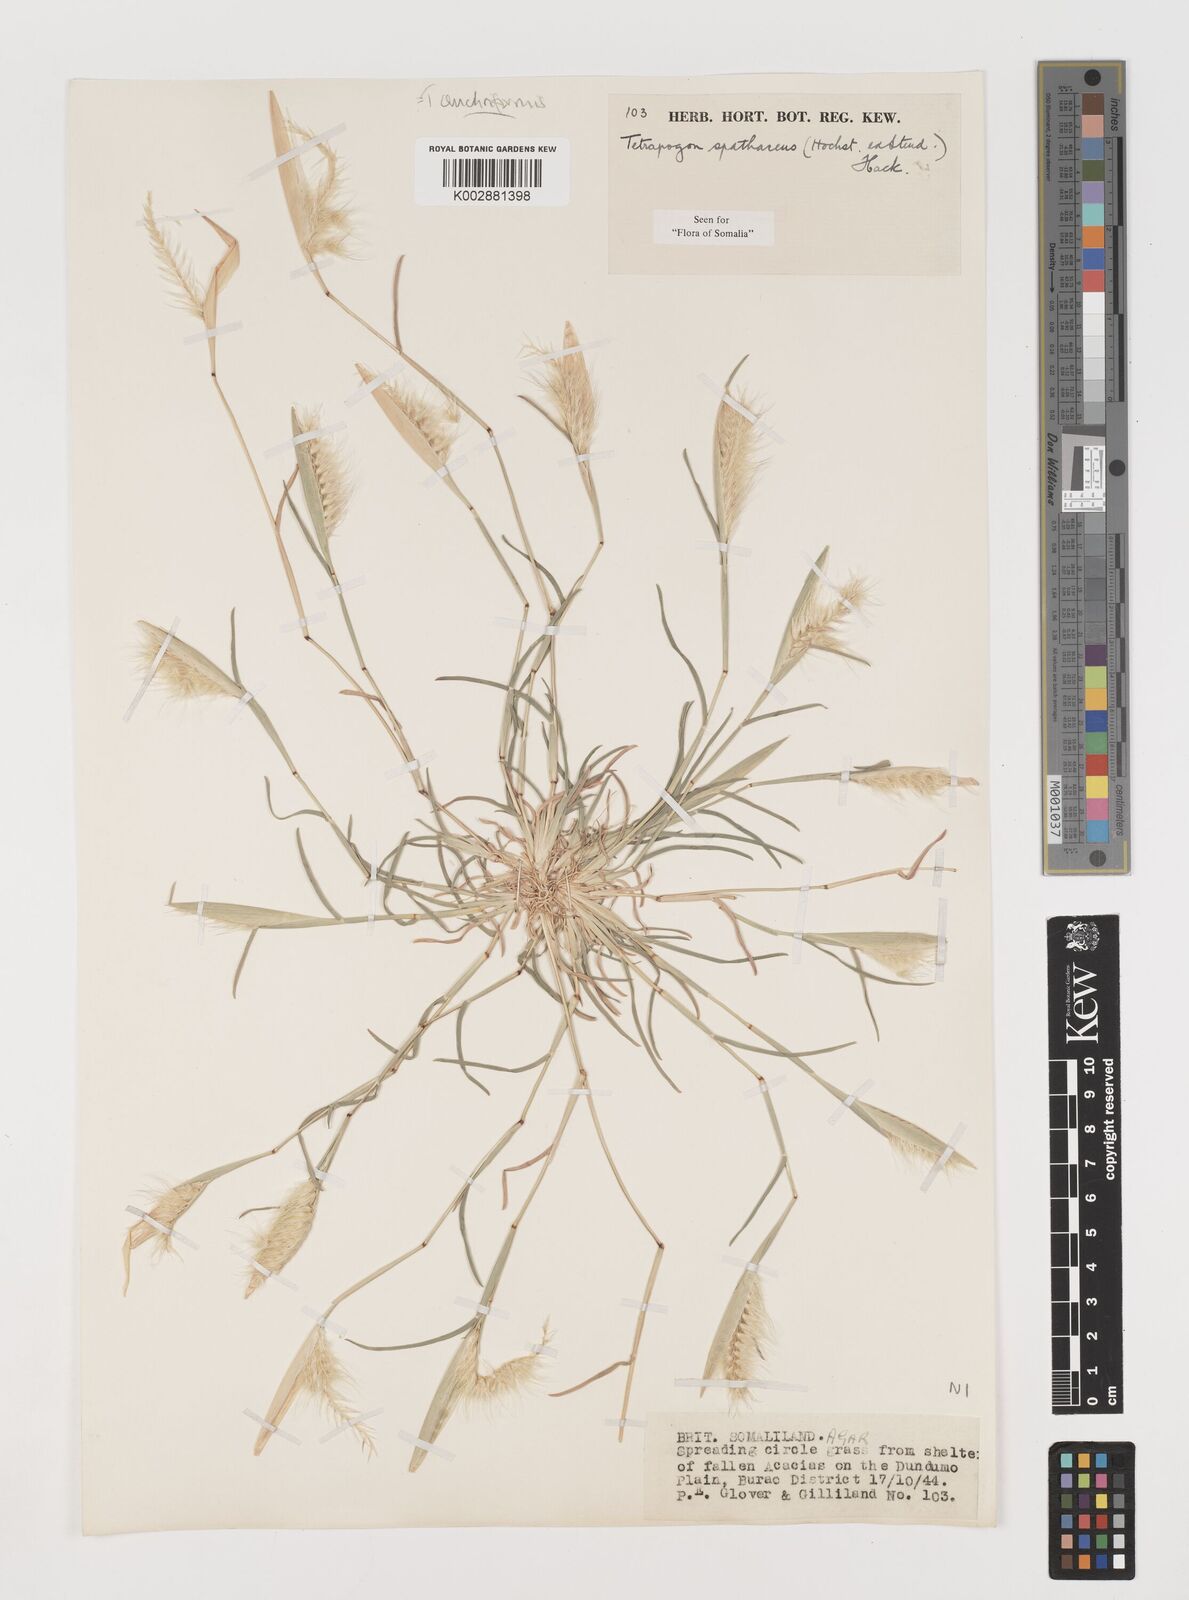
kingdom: Plantae
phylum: Tracheophyta
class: Liliopsida
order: Poales
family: Poaceae
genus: Tetrapogon
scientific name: Tetrapogon cenchriformis
